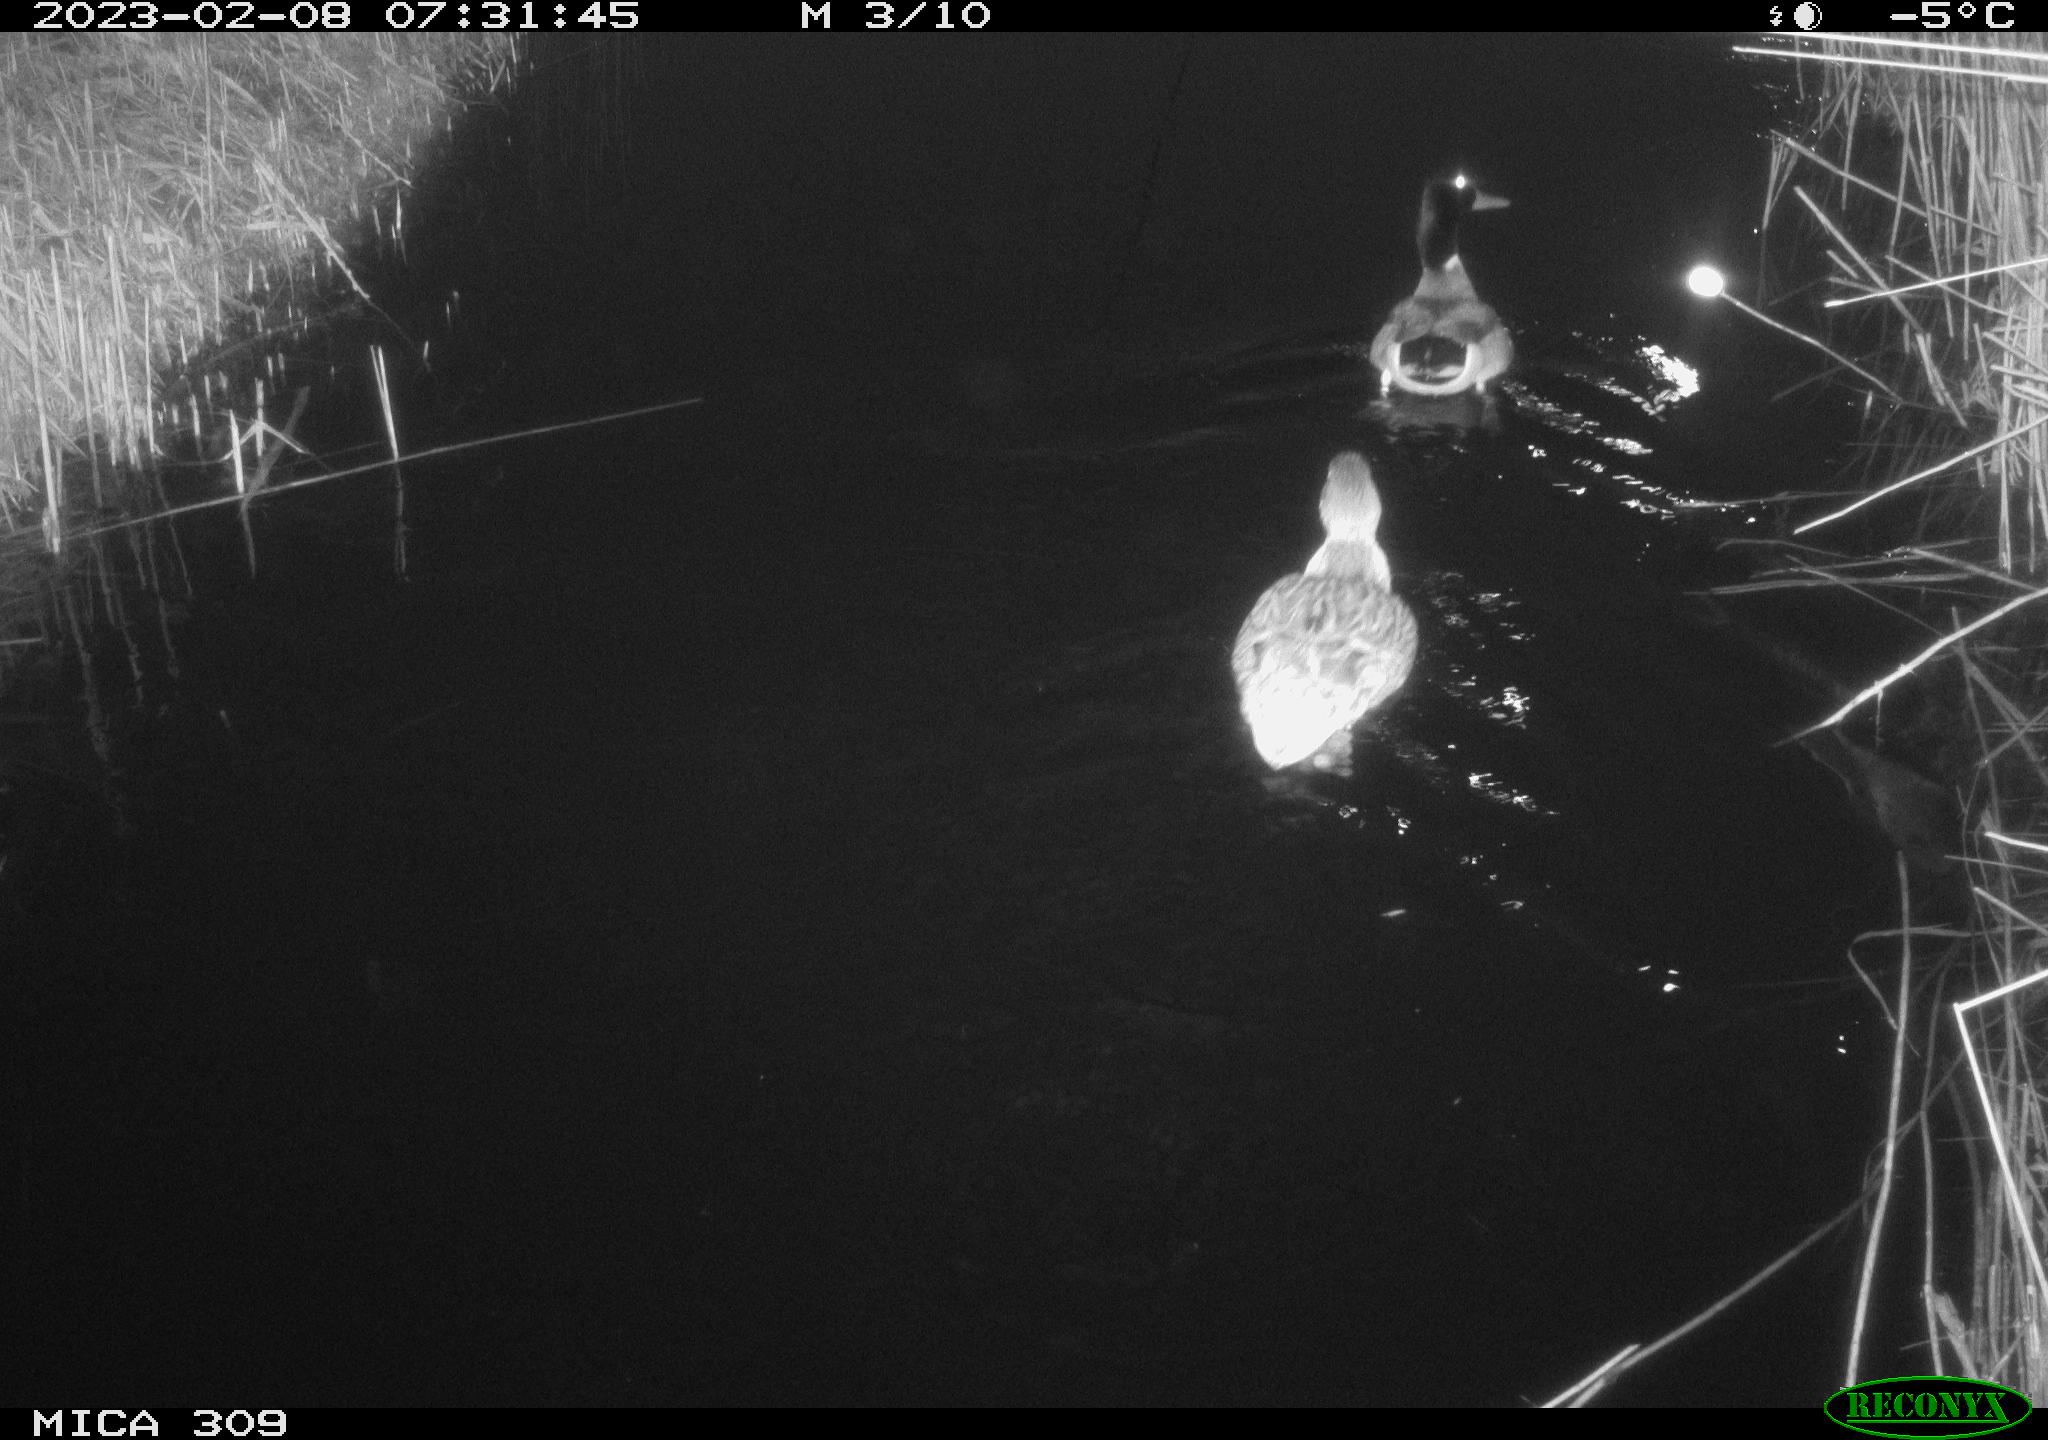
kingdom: Animalia
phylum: Chordata
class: Aves
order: Anseriformes
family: Anatidae
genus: Anas
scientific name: Anas
